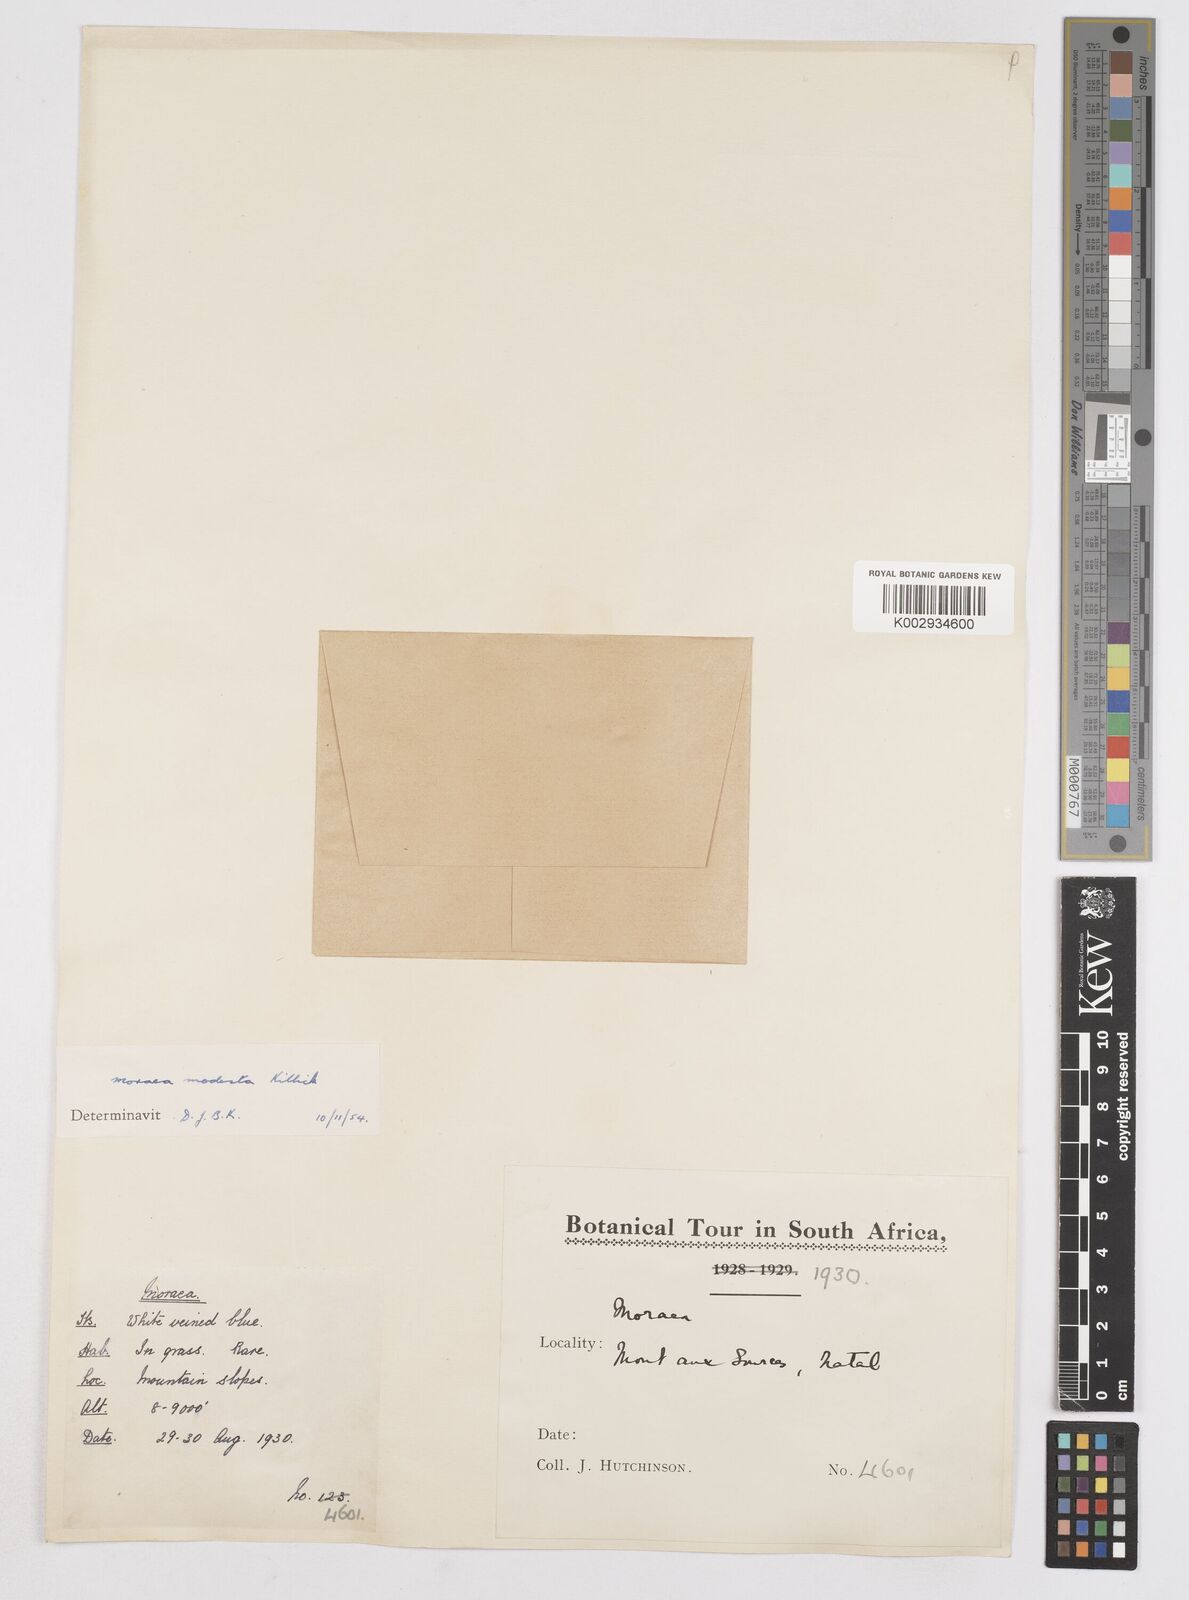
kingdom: Plantae
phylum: Tracheophyta
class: Liliopsida
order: Asparagales
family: Iridaceae
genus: Moraea
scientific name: Moraea modesta
